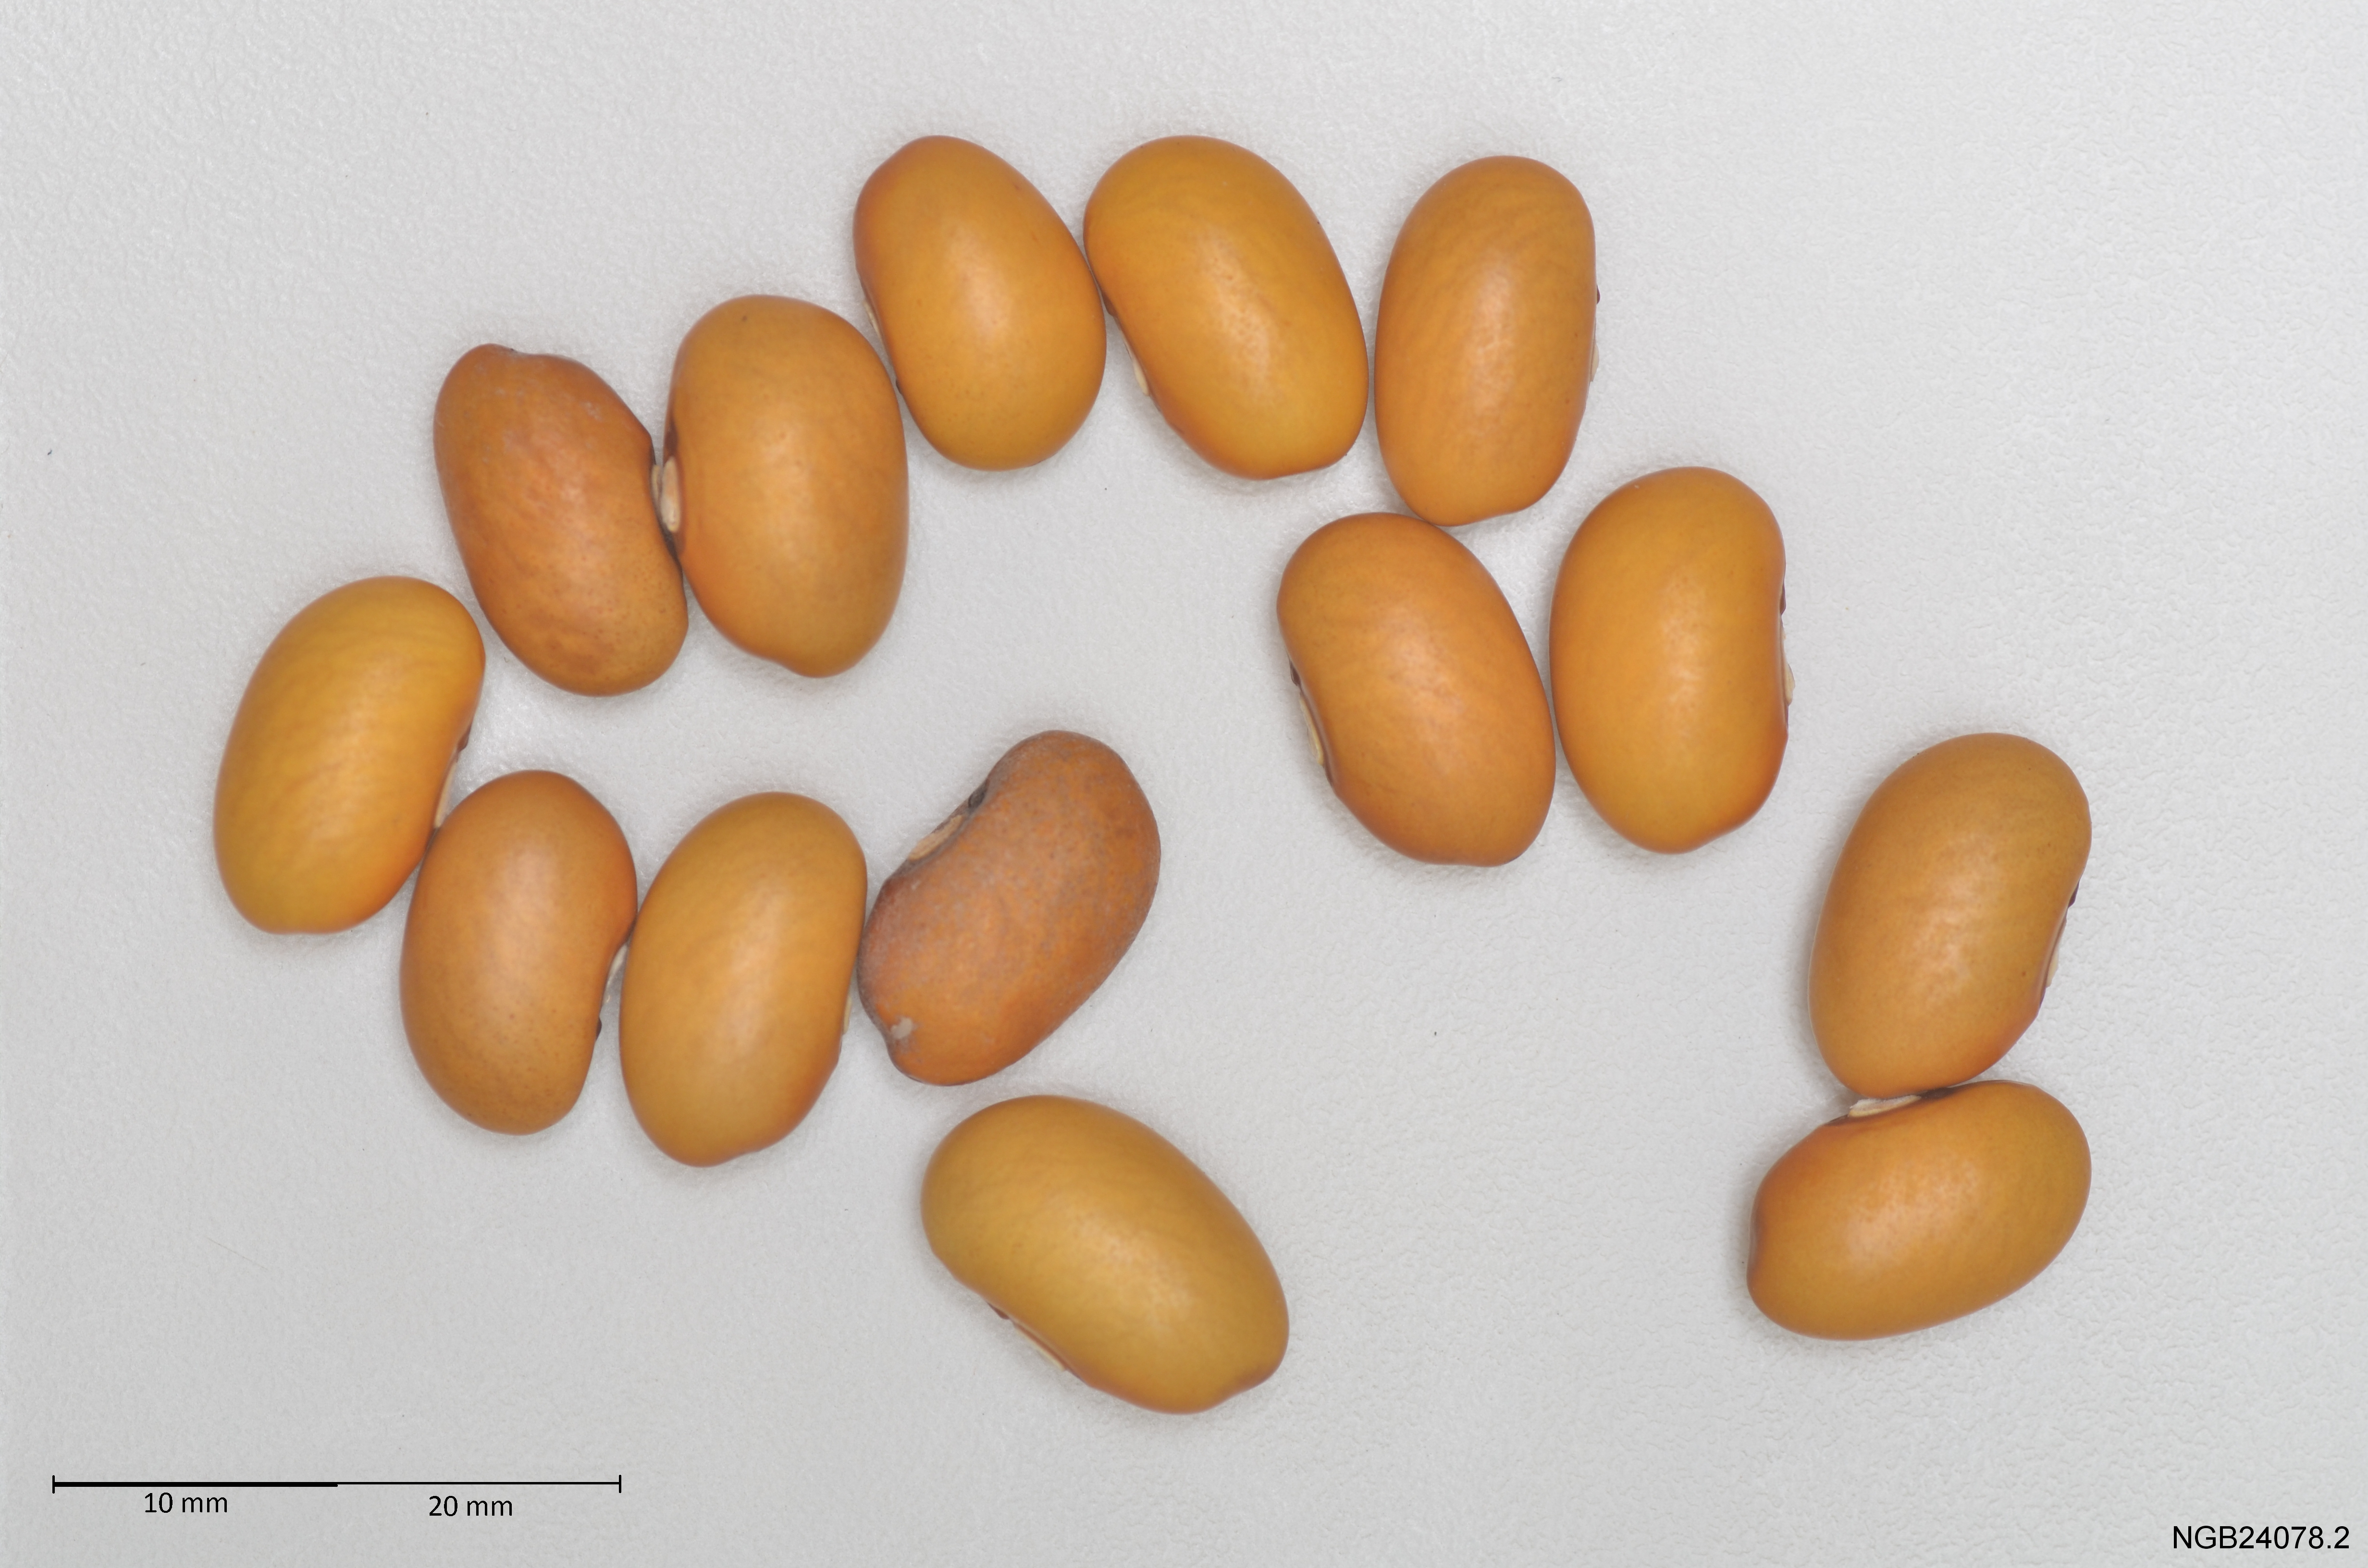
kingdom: Plantae
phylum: Tracheophyta
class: Magnoliopsida
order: Fabales
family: Fabaceae
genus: Phaseolus
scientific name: Phaseolus vulgaris
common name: Bean
